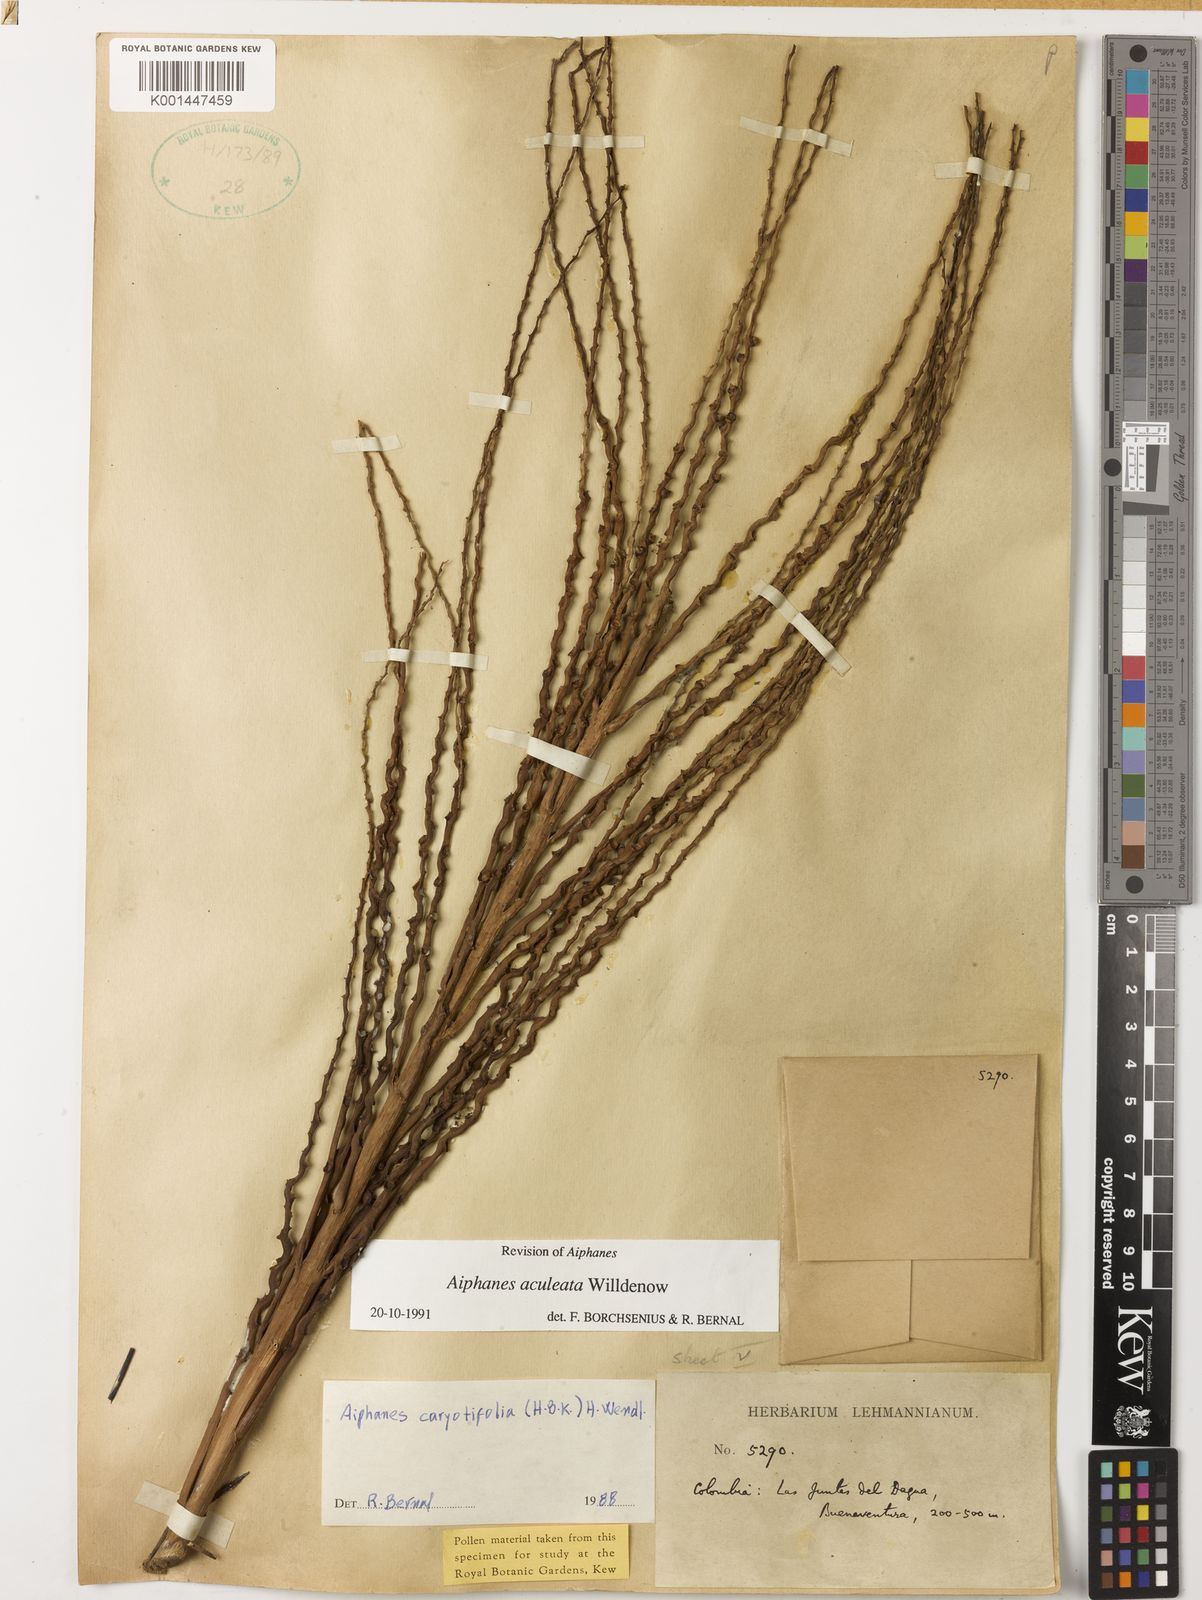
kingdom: Plantae
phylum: Tracheophyta
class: Liliopsida
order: Arecales
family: Arecaceae
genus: Aiphanes
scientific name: Aiphanes horrida
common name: Ruffle palm
